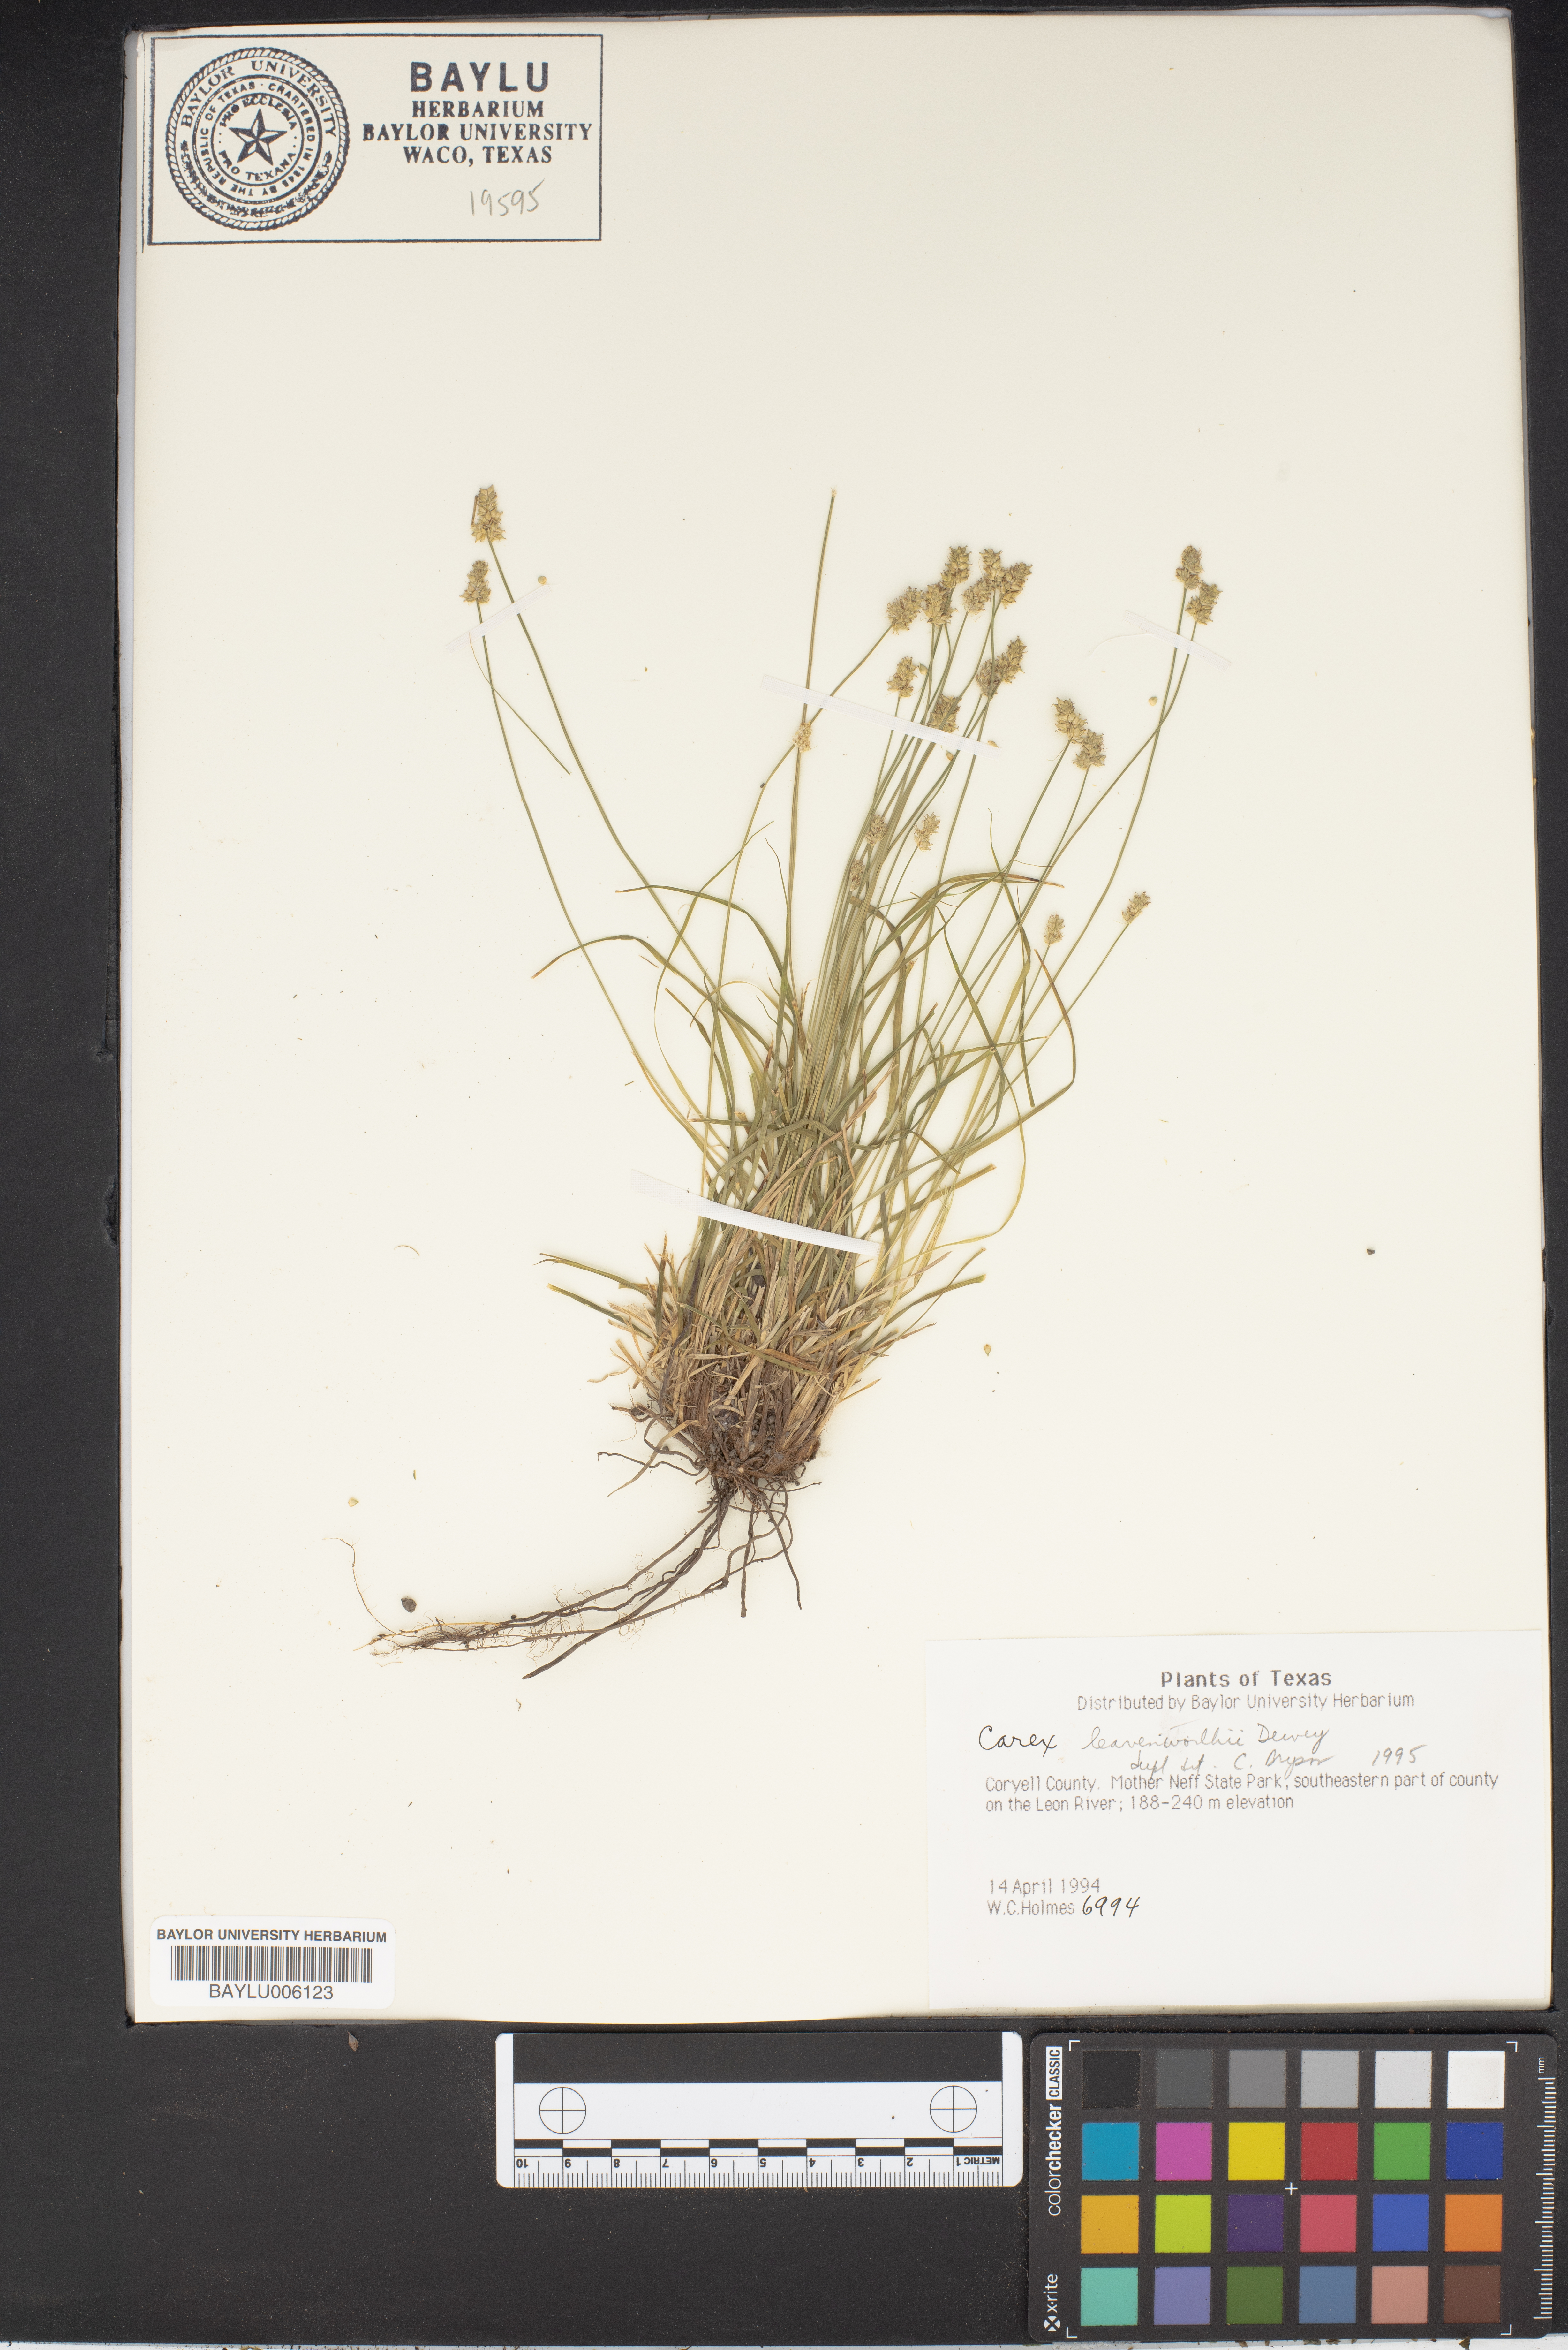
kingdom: Plantae
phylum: Tracheophyta
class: Liliopsida
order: Poales
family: Cyperaceae
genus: Carex
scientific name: Carex leavenworthii
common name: Leavenworth's bracted sedge
